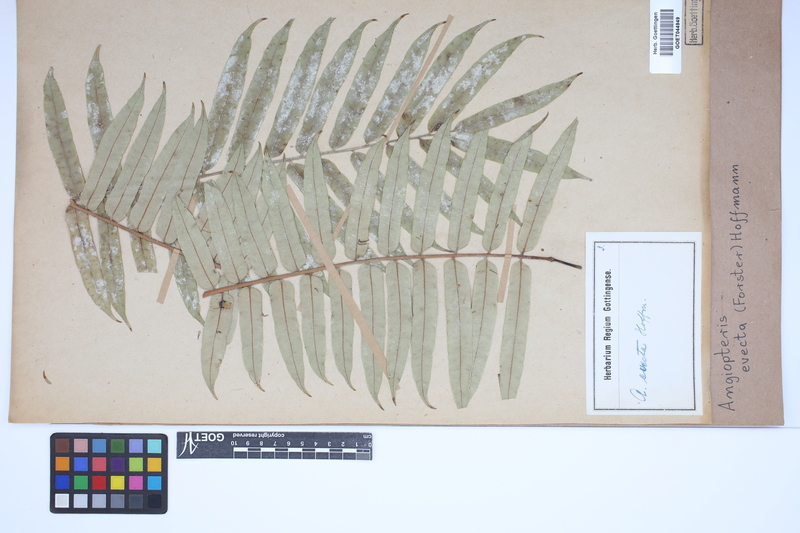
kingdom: Plantae
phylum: Tracheophyta
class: Polypodiopsida
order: Marattiales
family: Marattiaceae
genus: Angiopteris
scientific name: Angiopteris evecta
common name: Mule's-foot fern
